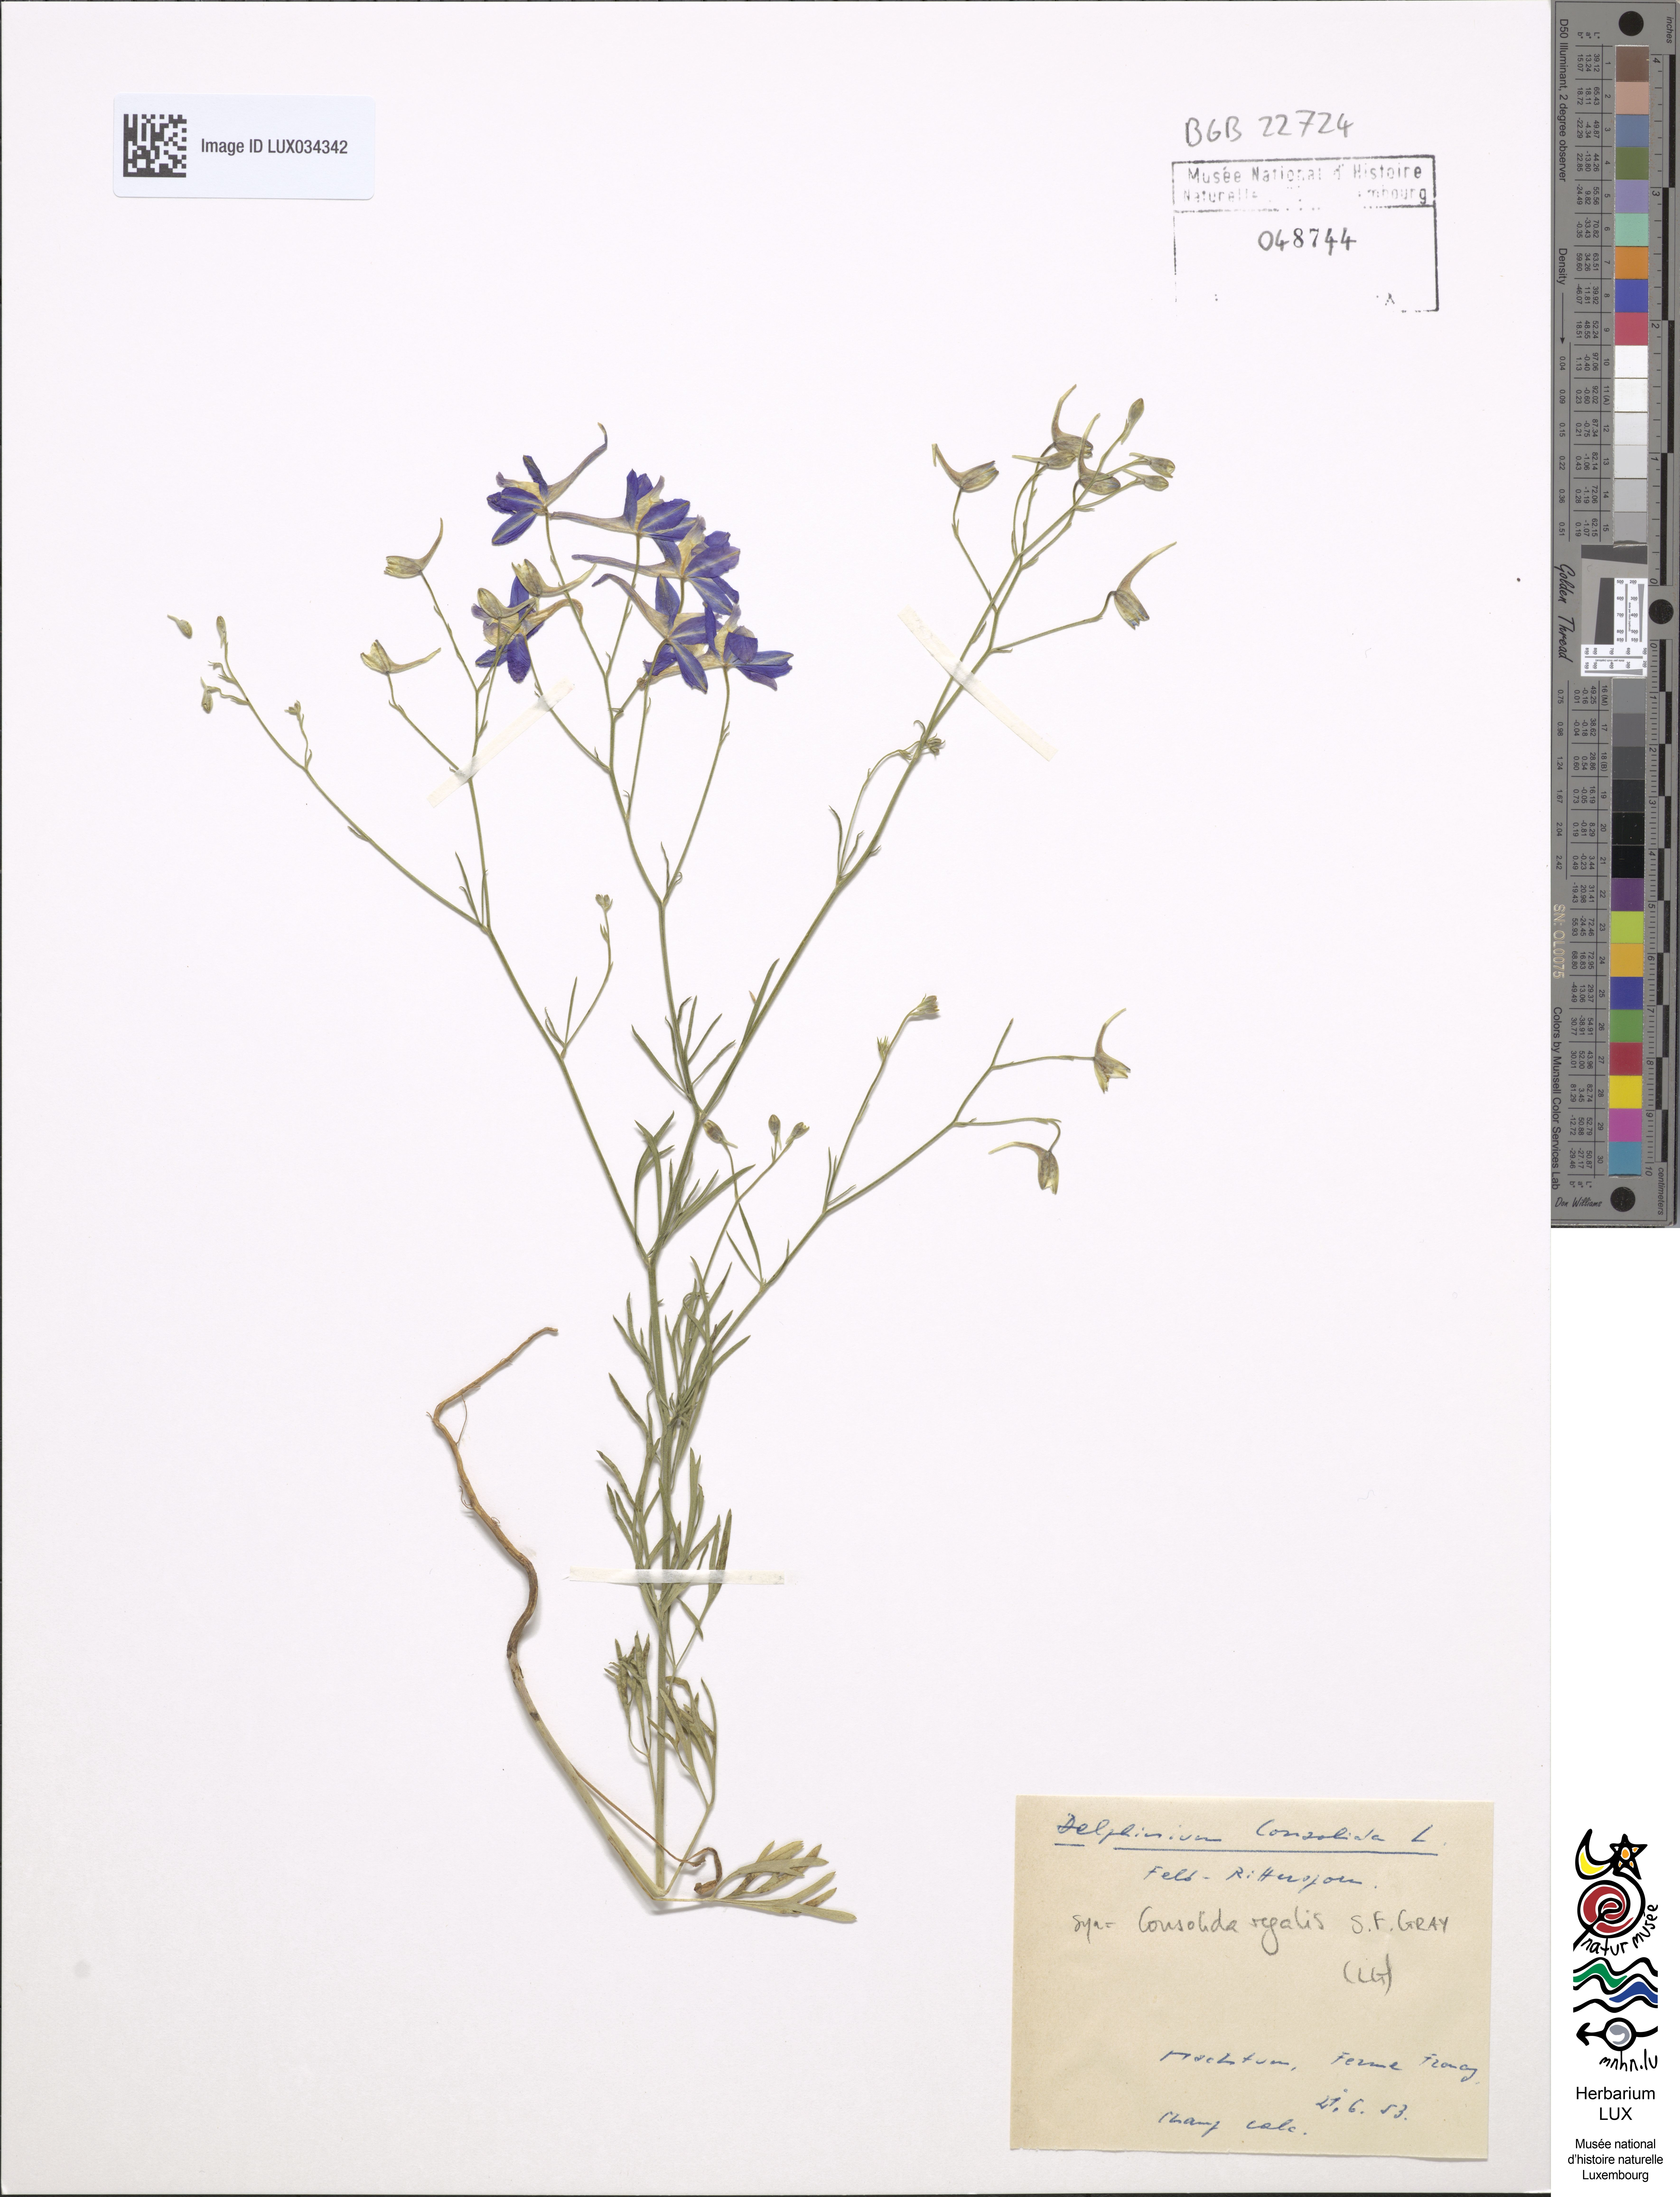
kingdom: Plantae
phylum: Tracheophyta
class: Magnoliopsida
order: Ranunculales
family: Ranunculaceae
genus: Delphinium
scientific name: Delphinium consolida
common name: Branching larkspur
